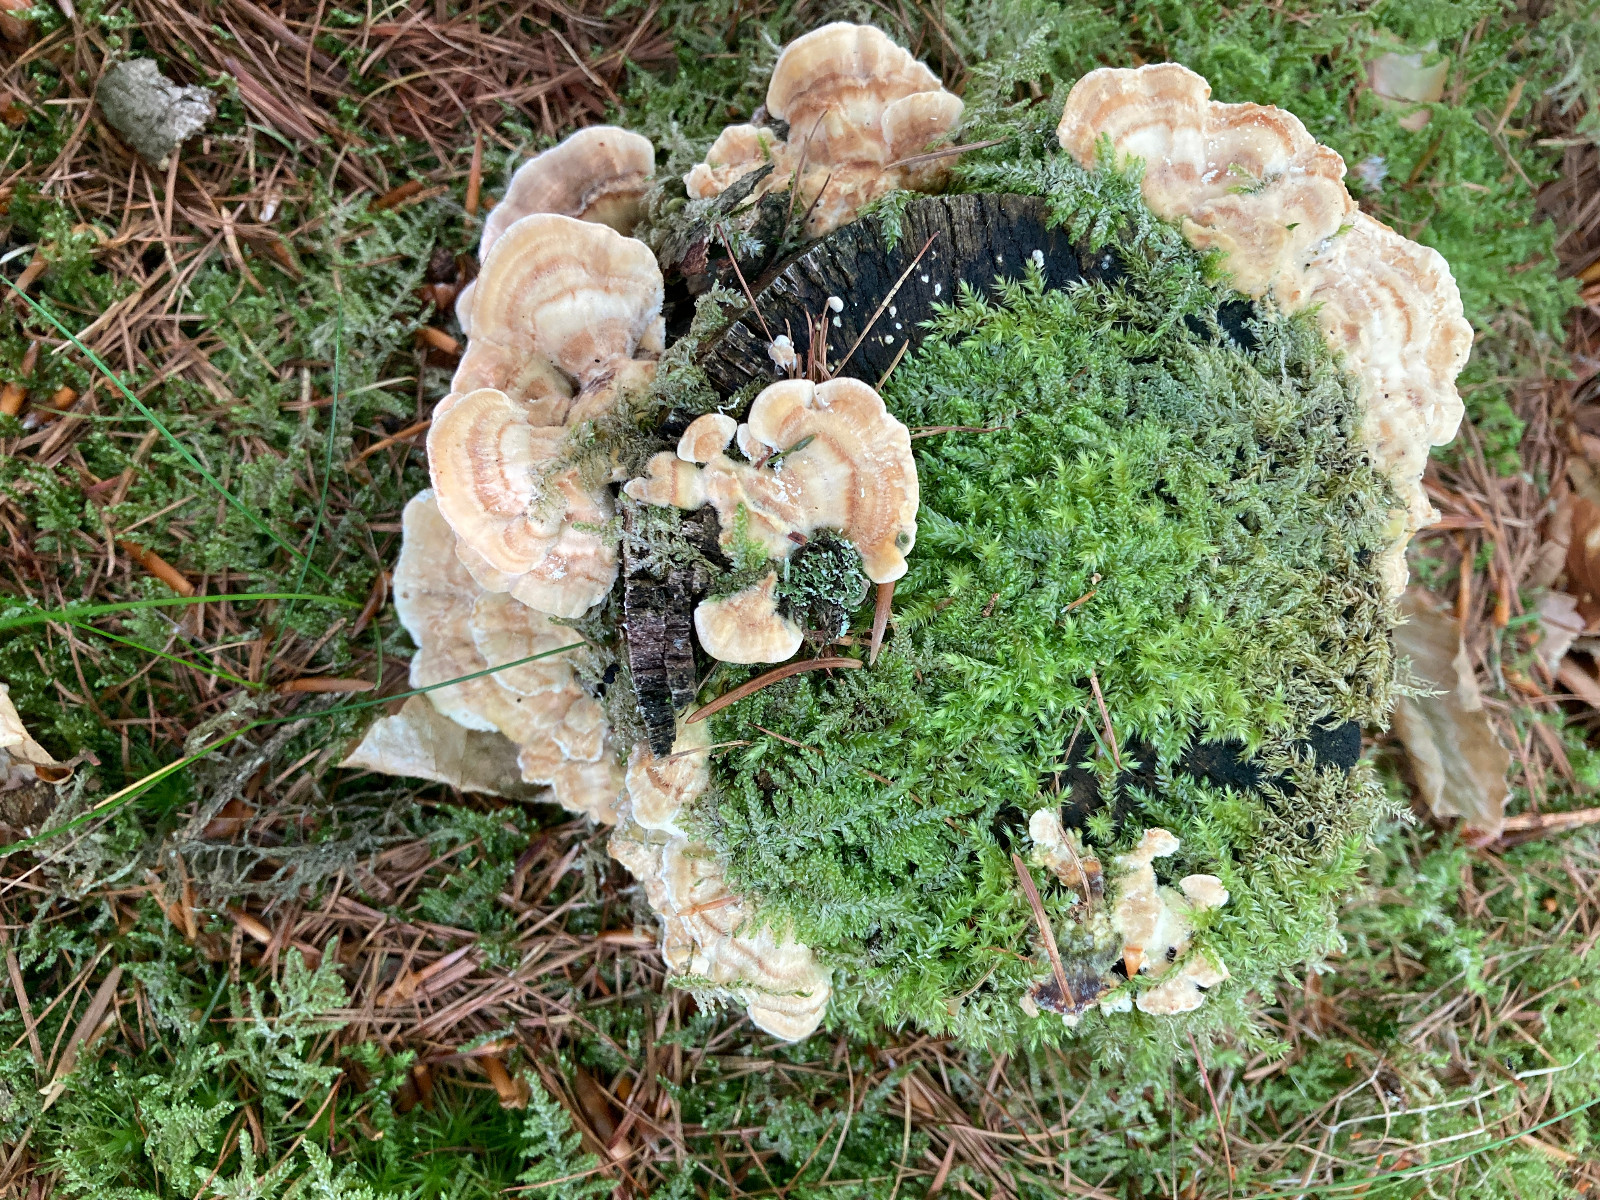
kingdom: Fungi
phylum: Basidiomycota
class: Agaricomycetes
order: Polyporales
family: Polyporaceae
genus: Trametes
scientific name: Trametes
